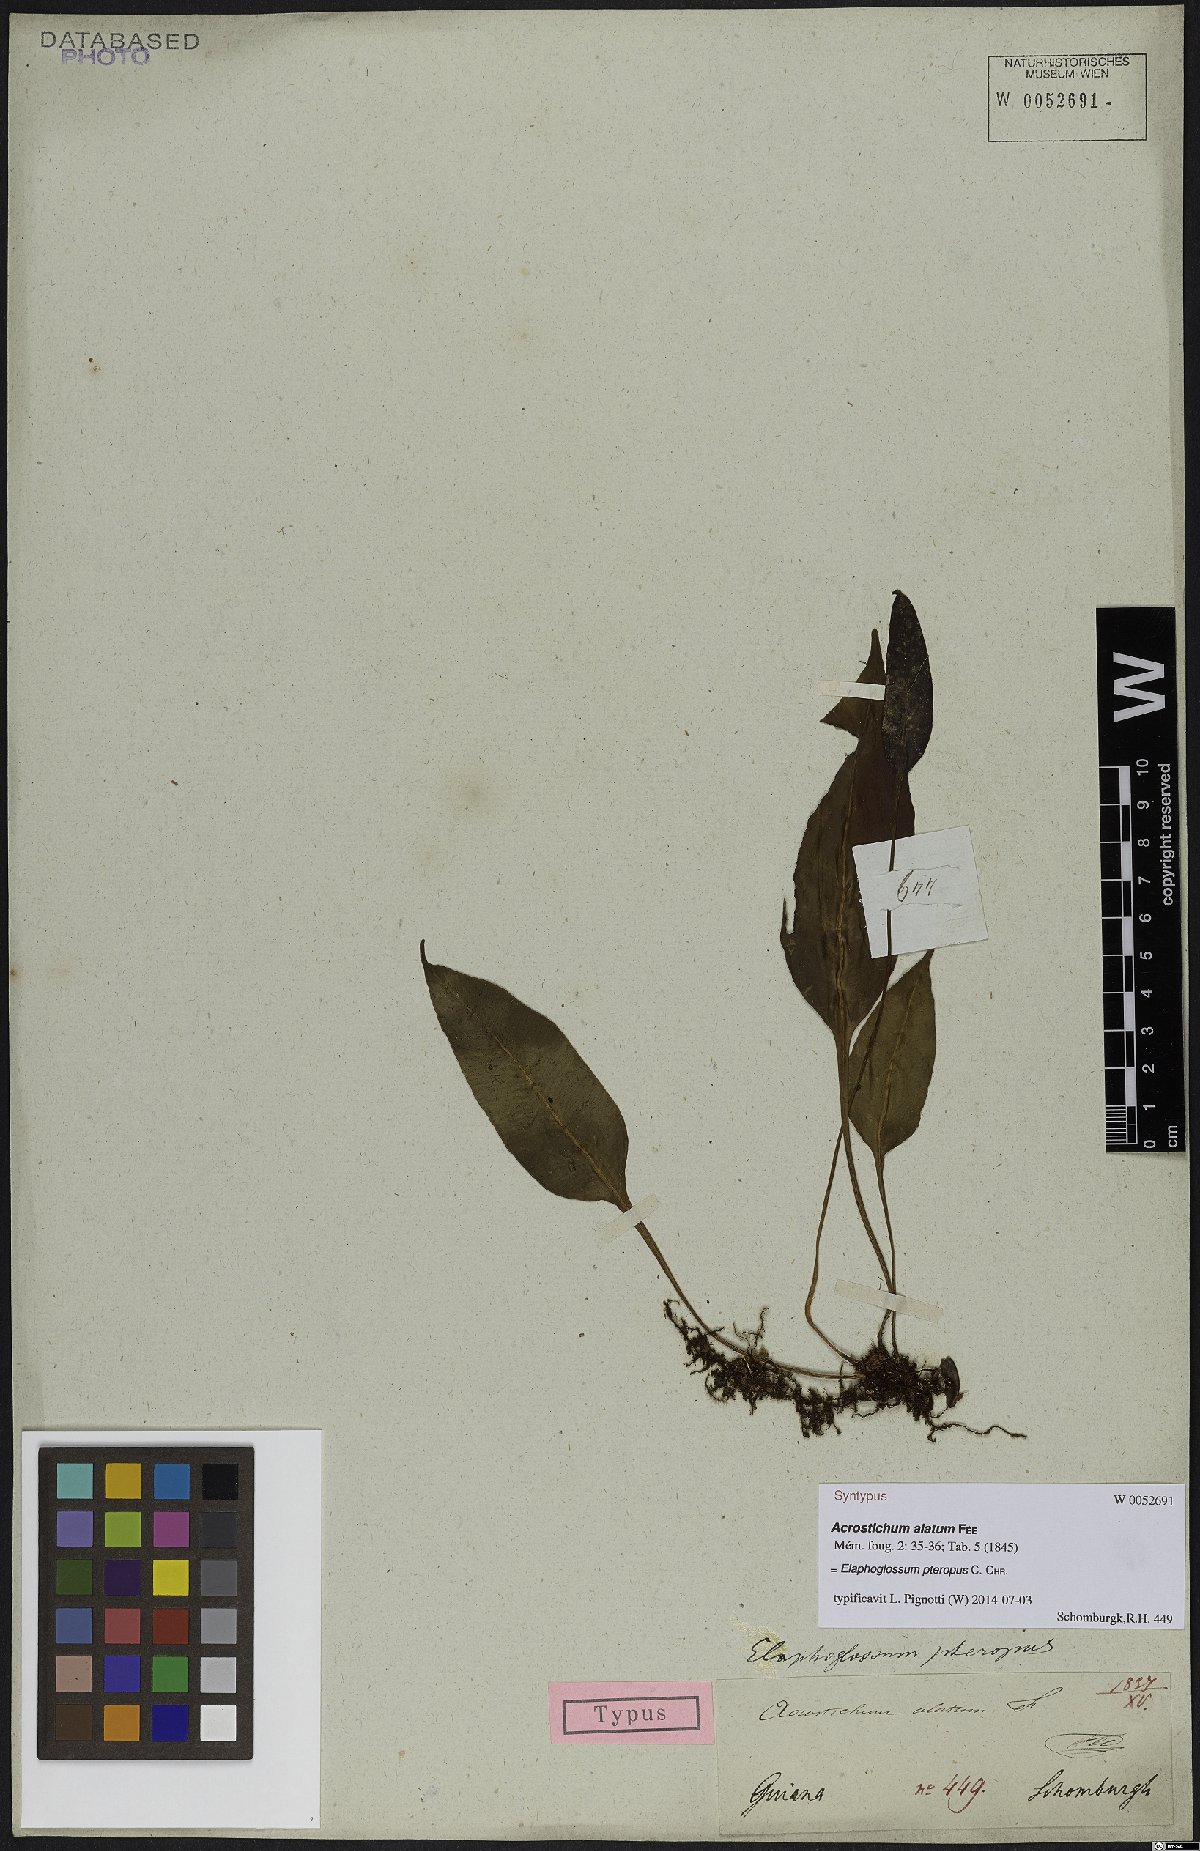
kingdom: Plantae
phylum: Tracheophyta
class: Polypodiopsida
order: Polypodiales
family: Dryopteridaceae
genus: Elaphoglossum
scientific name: Elaphoglossum pteropus
